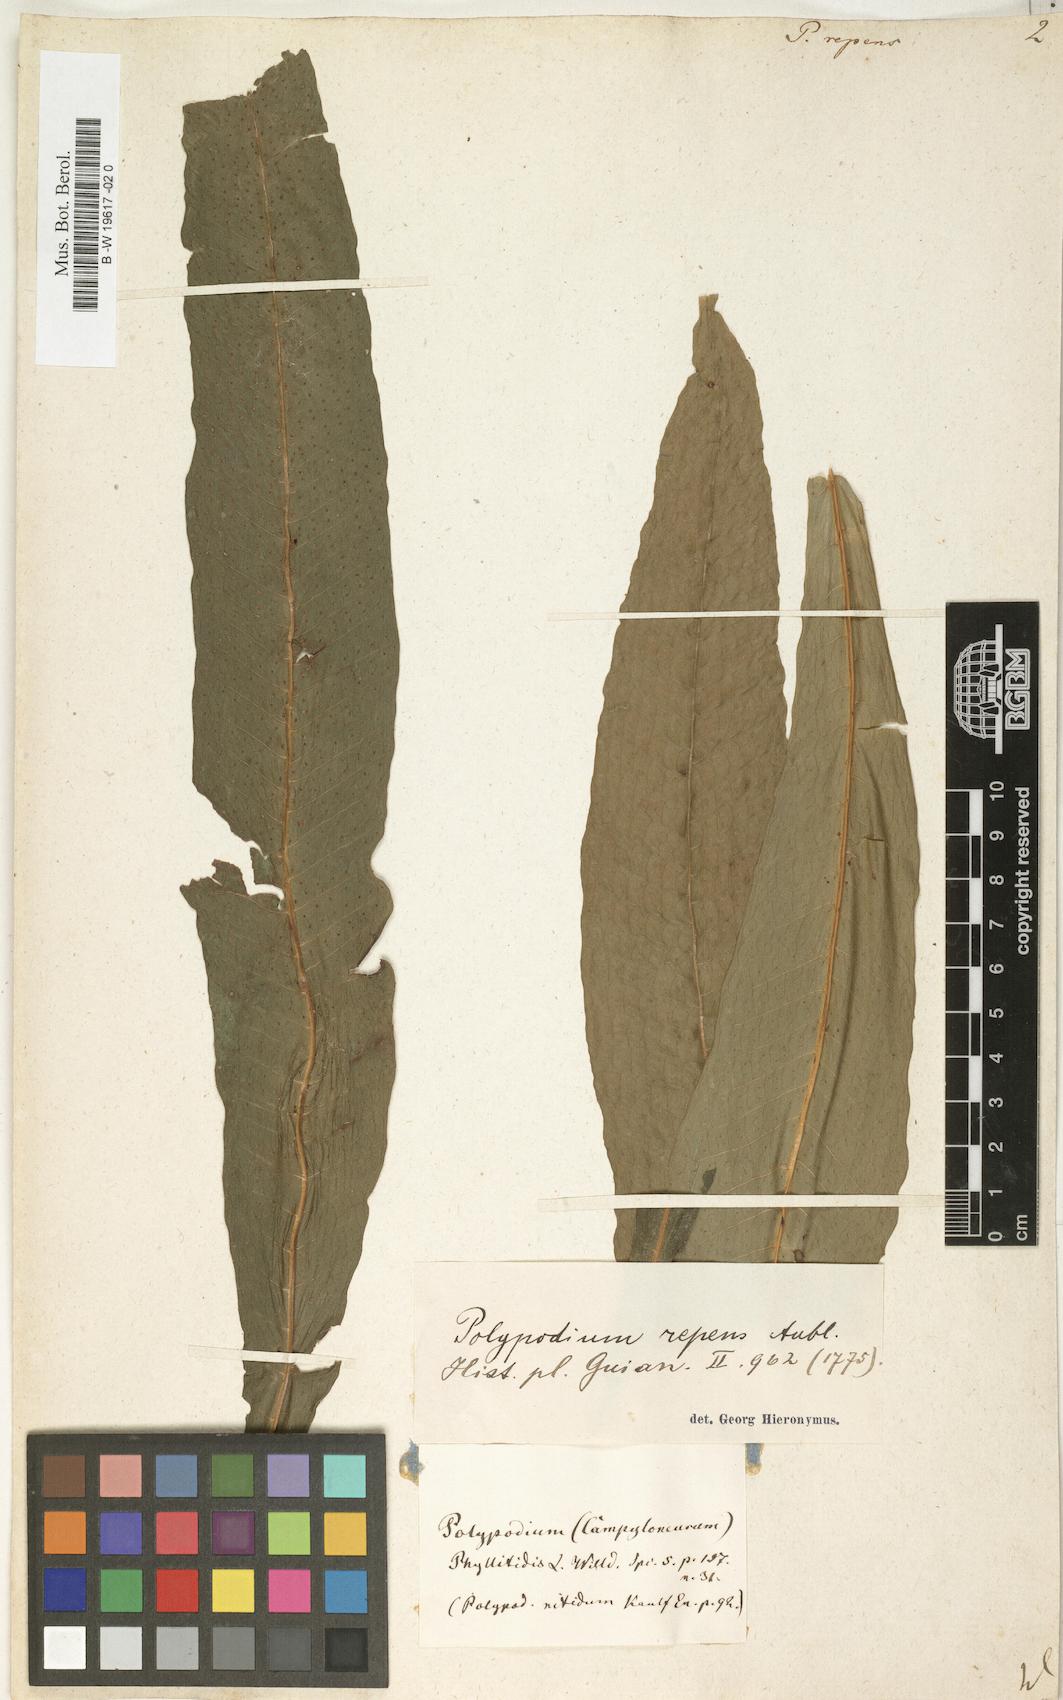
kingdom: Plantae
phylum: Tracheophyta
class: Polypodiopsida
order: Polypodiales
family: Polypodiaceae
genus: Campyloneurum
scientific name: Campyloneurum
